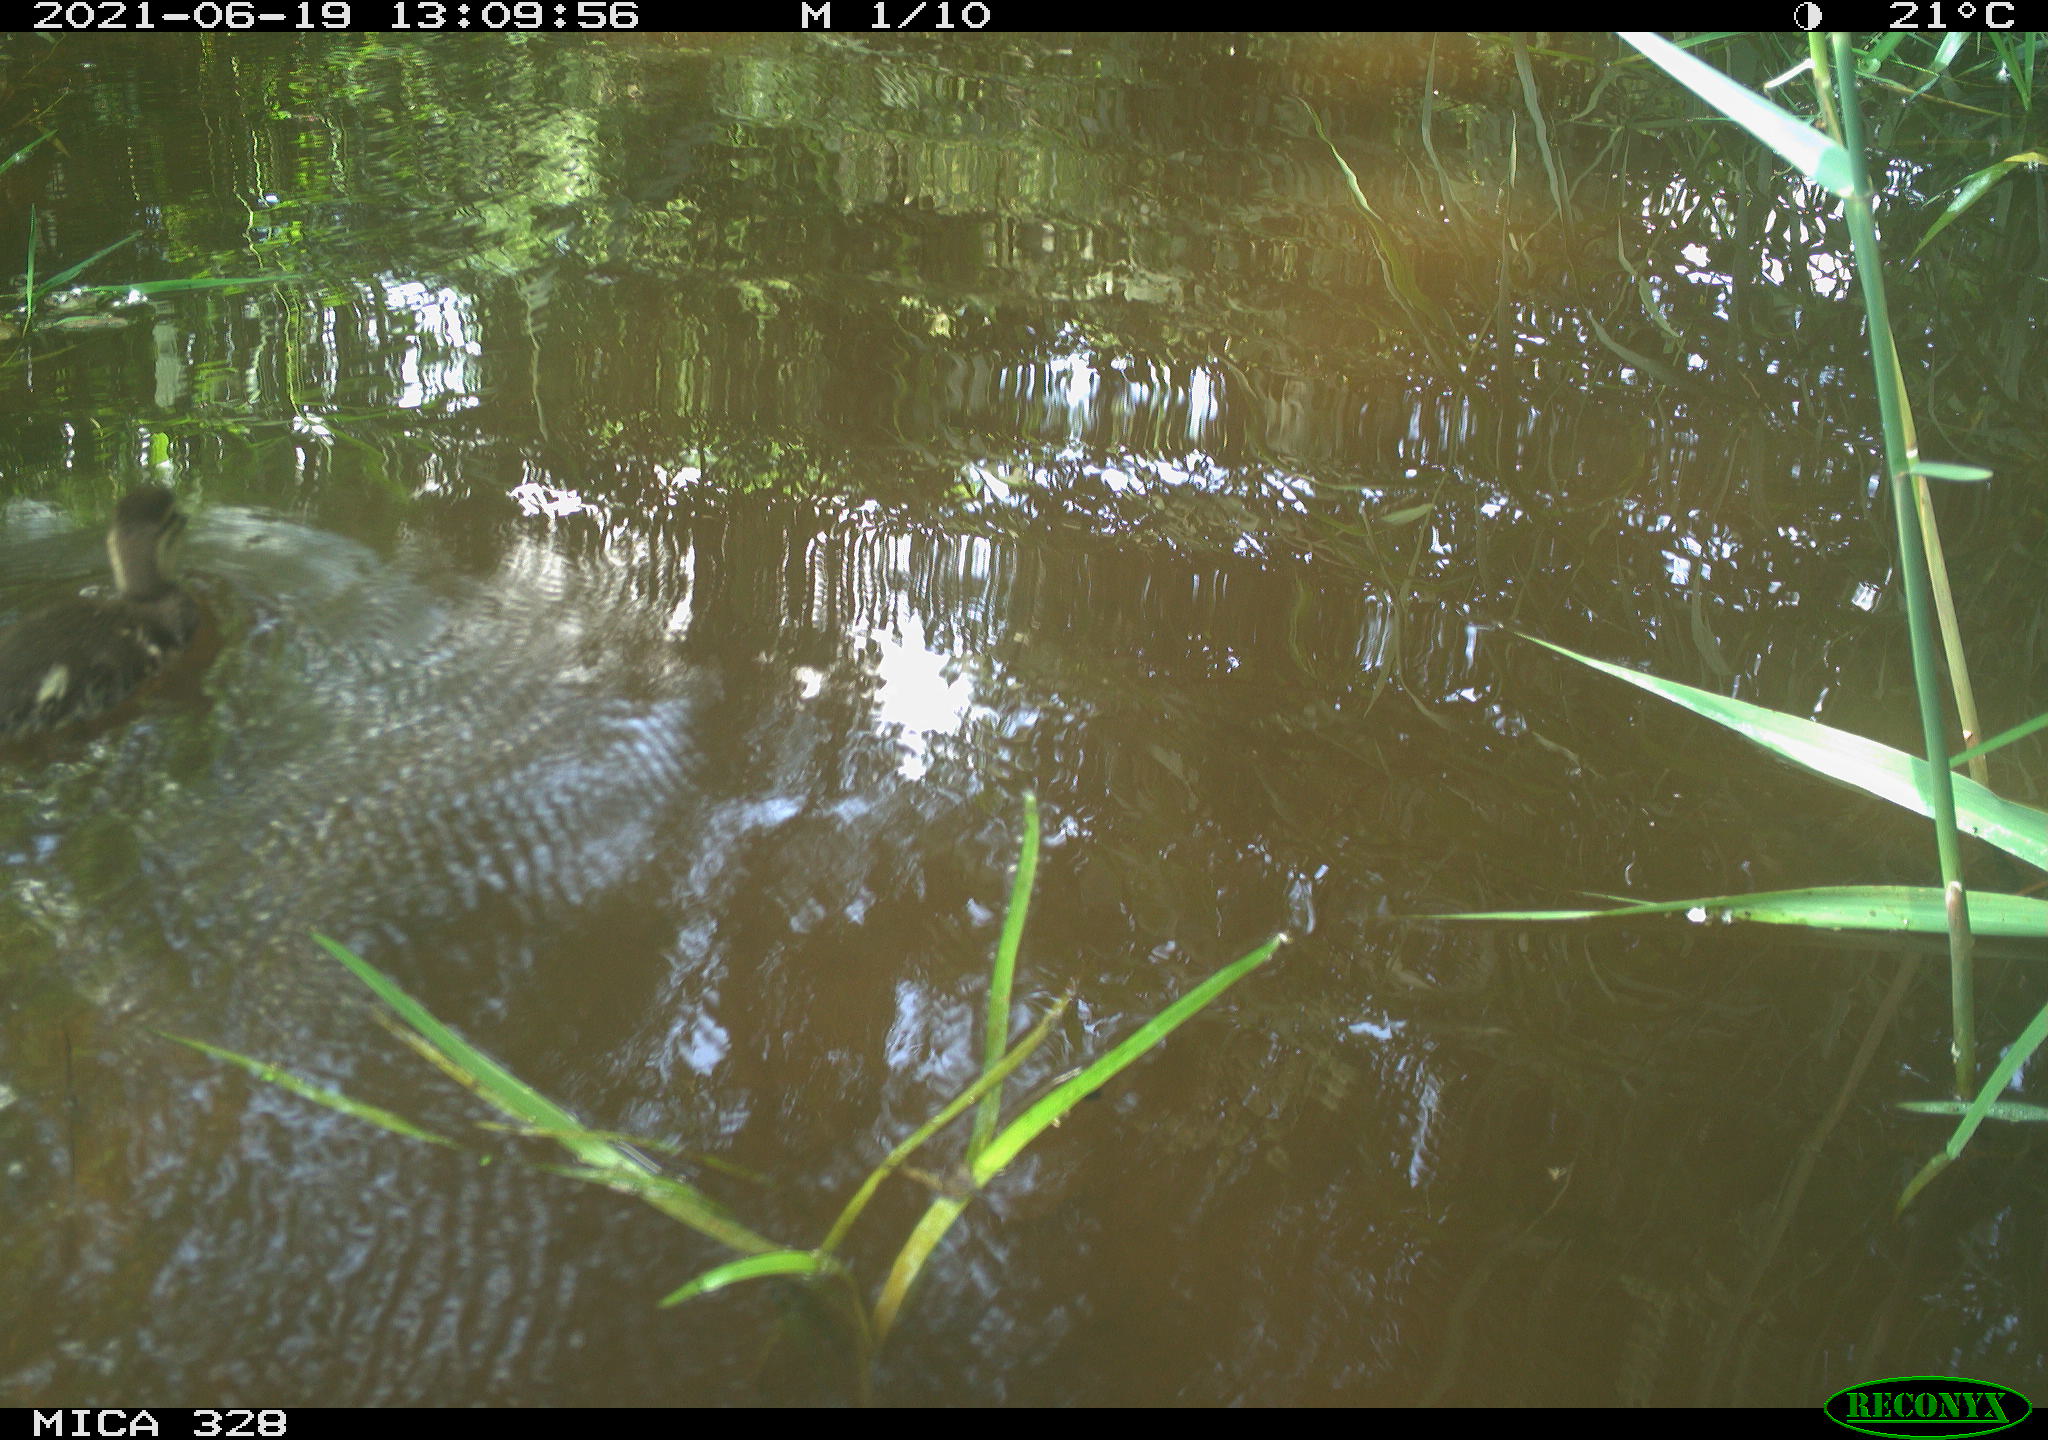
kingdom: Animalia
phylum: Chordata
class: Aves
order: Anseriformes
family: Anatidae
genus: Aix
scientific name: Aix galericulata
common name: Mandarin duck
